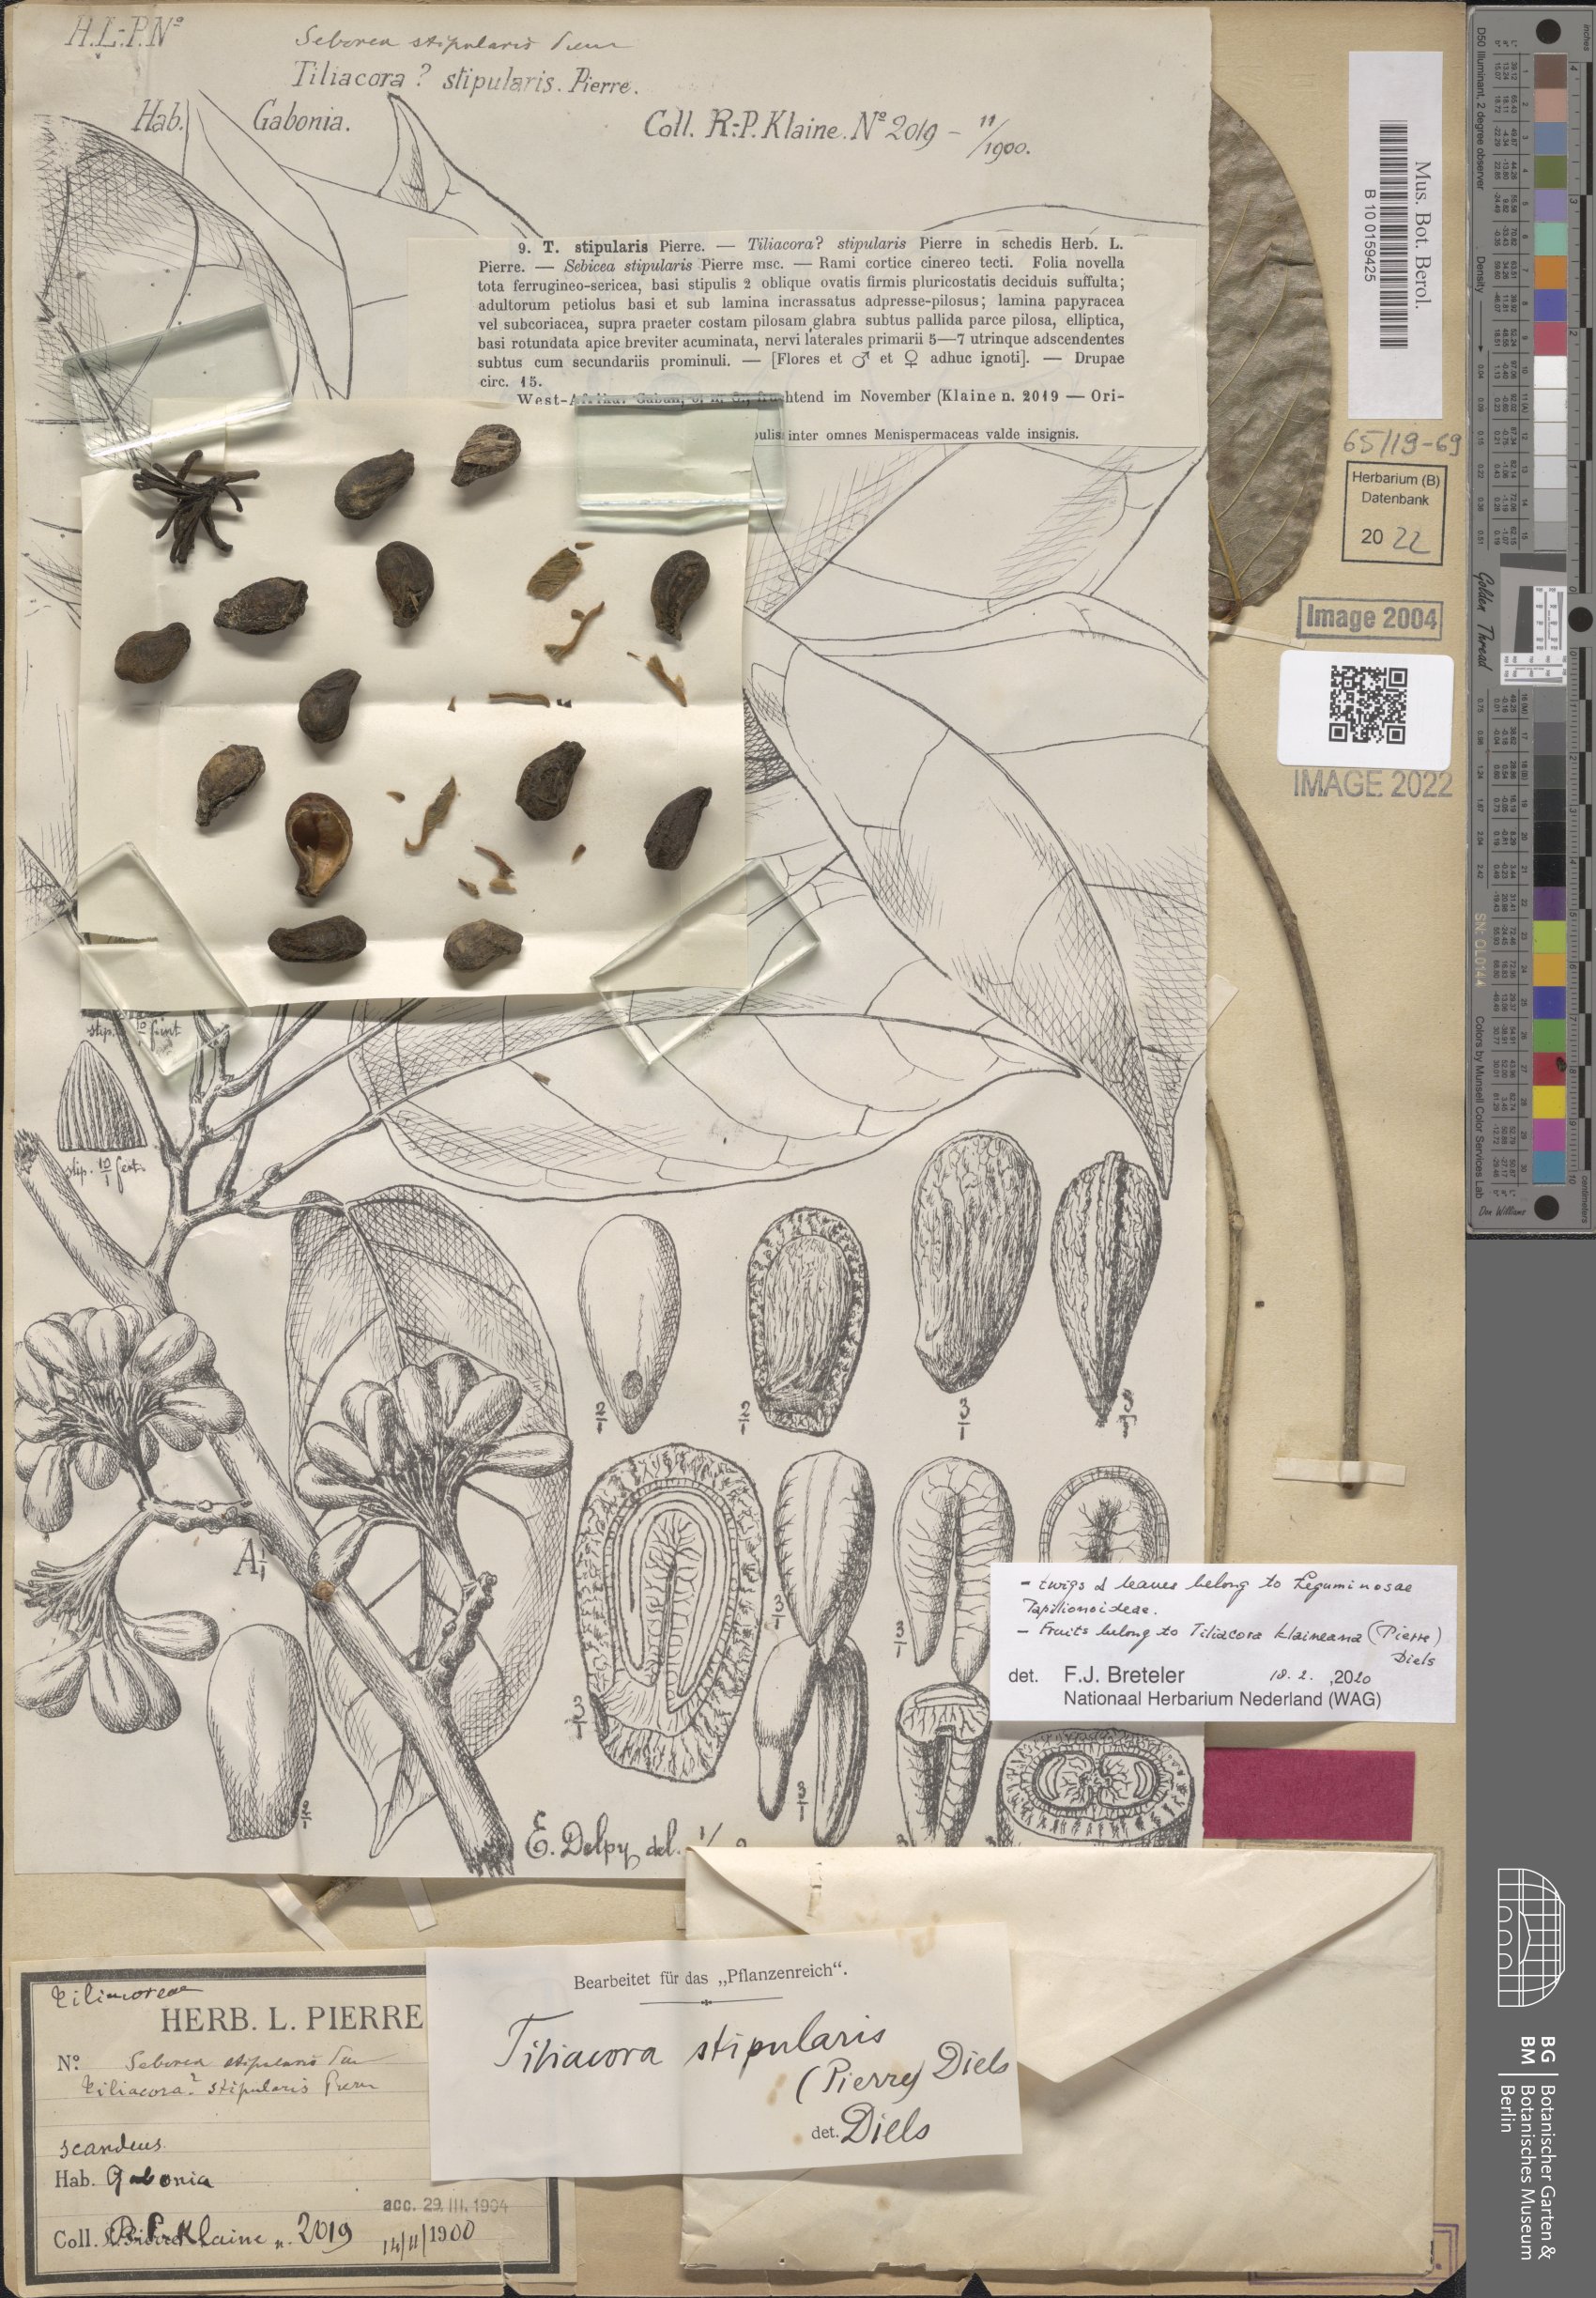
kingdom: Plantae
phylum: Tracheophyta
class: Magnoliopsida
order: Ranunculales
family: Menispermaceae
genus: Tiliacora
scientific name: Tiliacora klaineana
